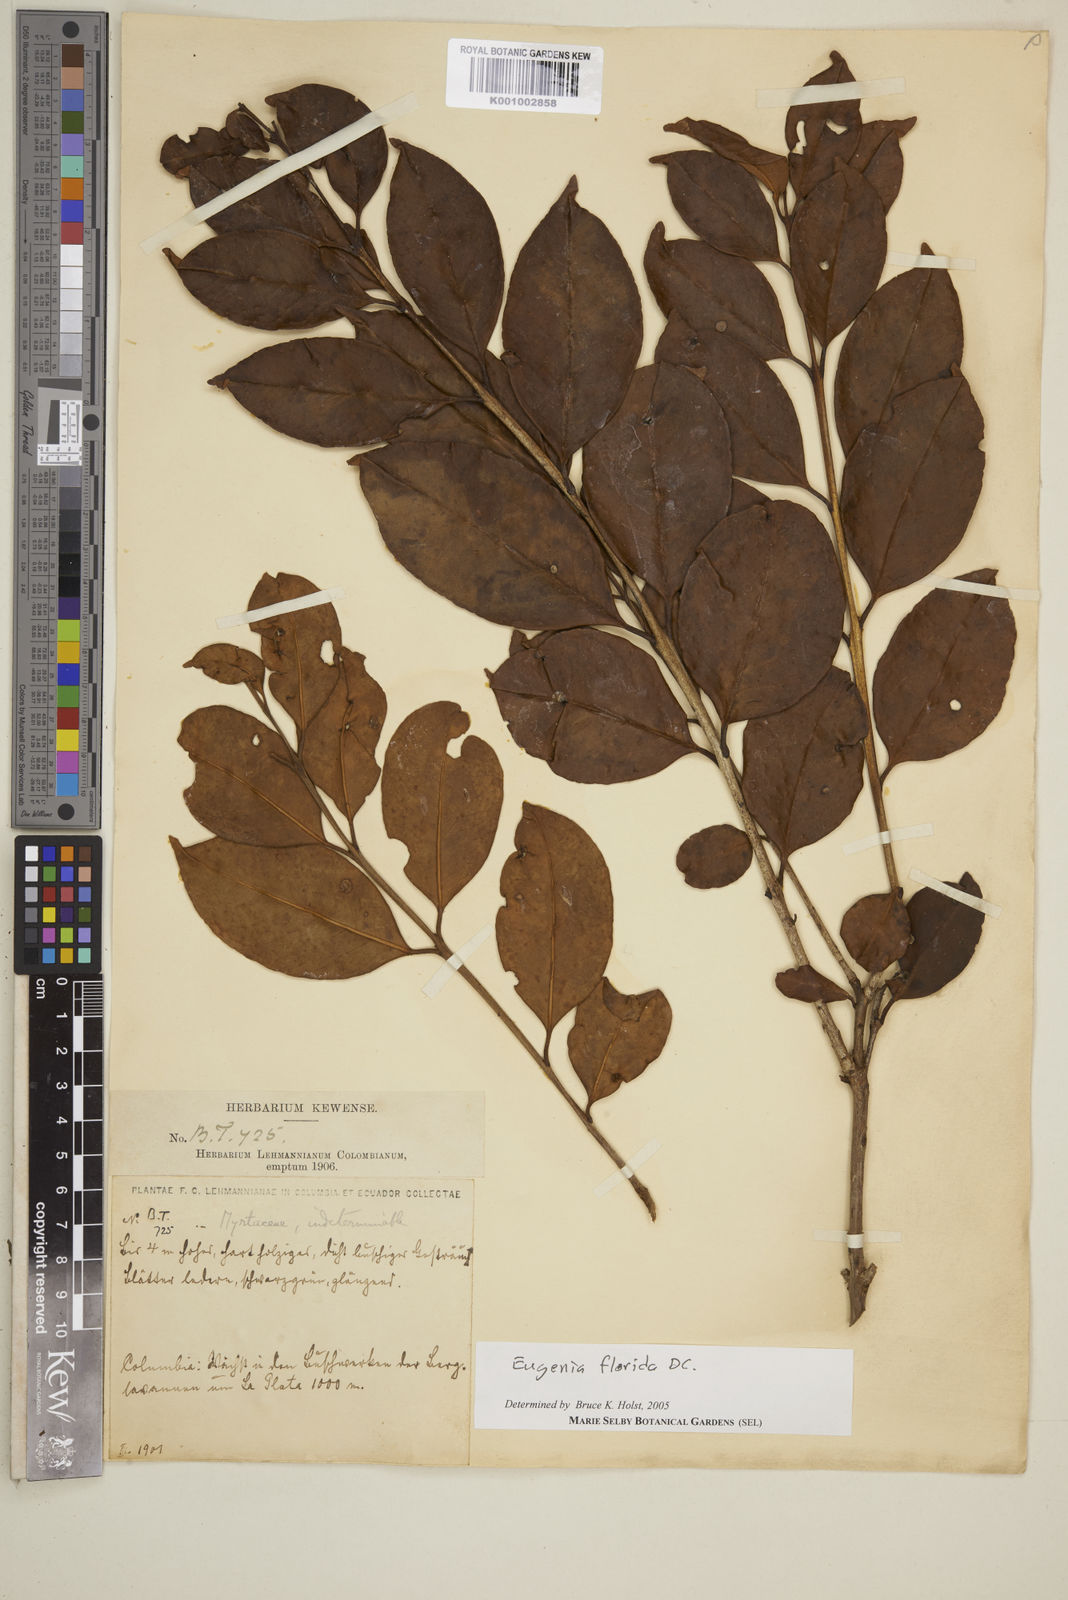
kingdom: Plantae
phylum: Tracheophyta
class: Magnoliopsida
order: Myrtales
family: Myrtaceae
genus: Eugenia
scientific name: Eugenia florida
